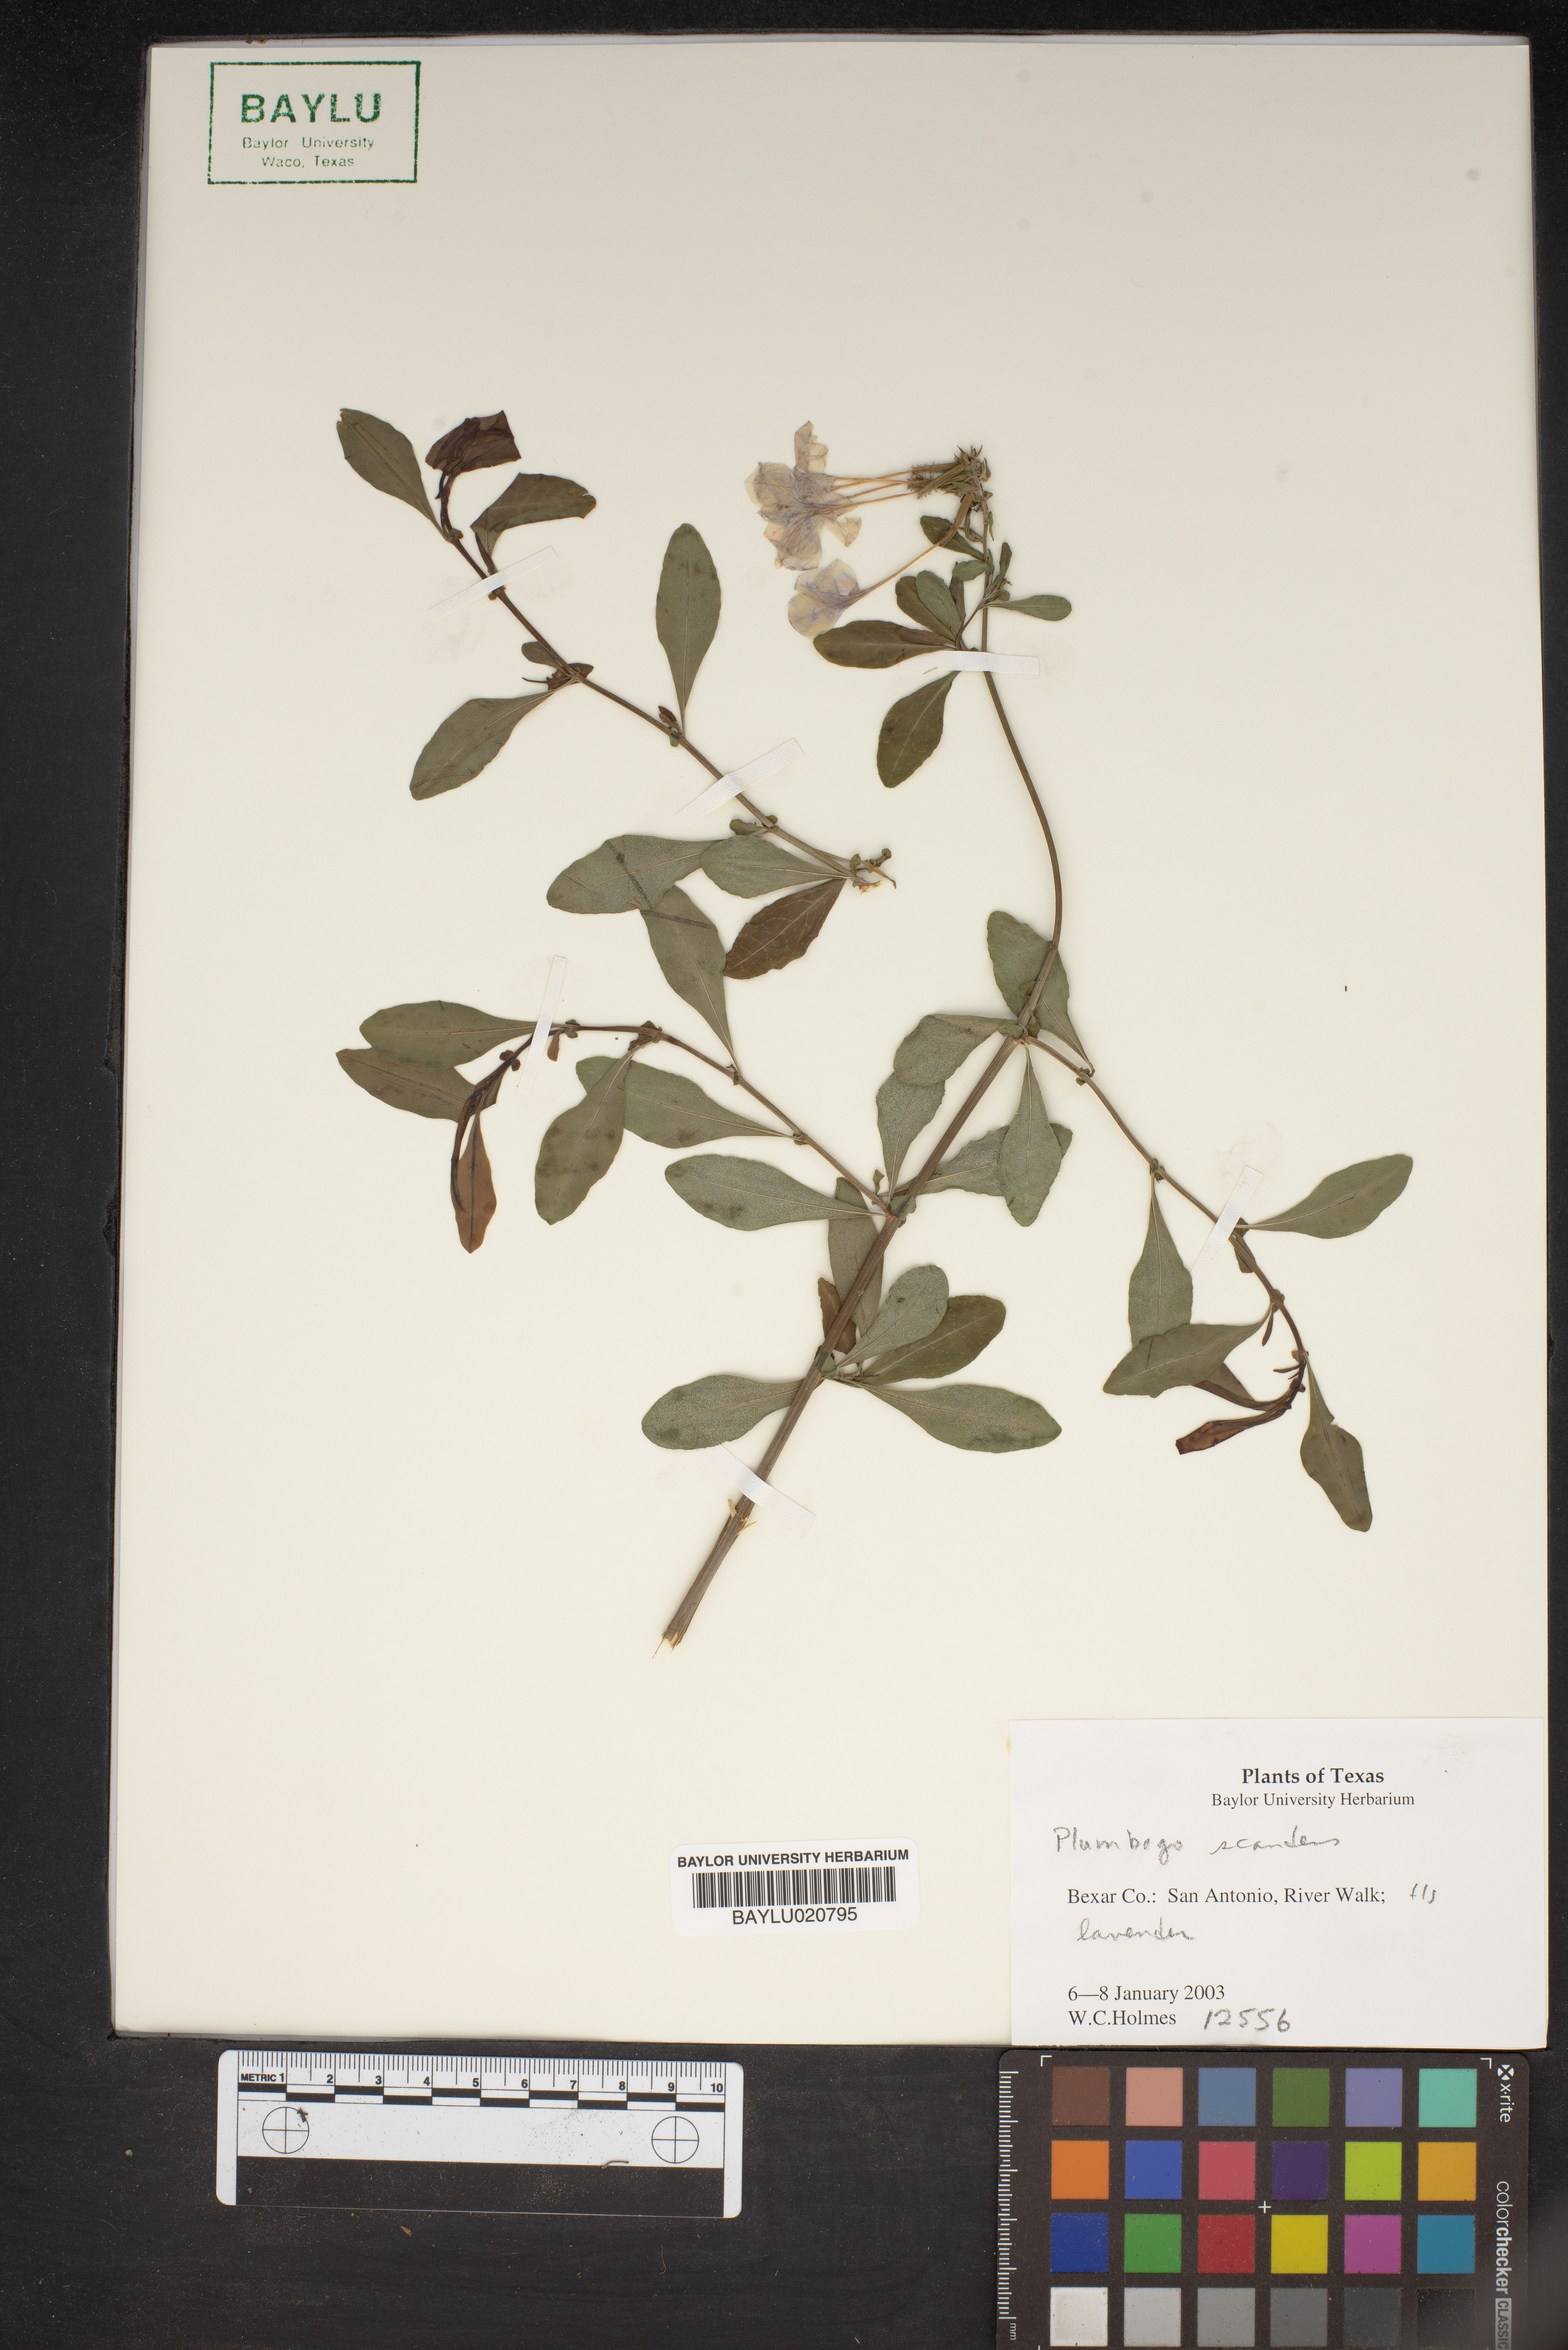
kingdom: Plantae
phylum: Tracheophyta
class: Magnoliopsida
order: Caryophyllales
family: Plumbaginaceae
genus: Plumbago
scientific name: Plumbago zeylanica
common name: Doctorbush
